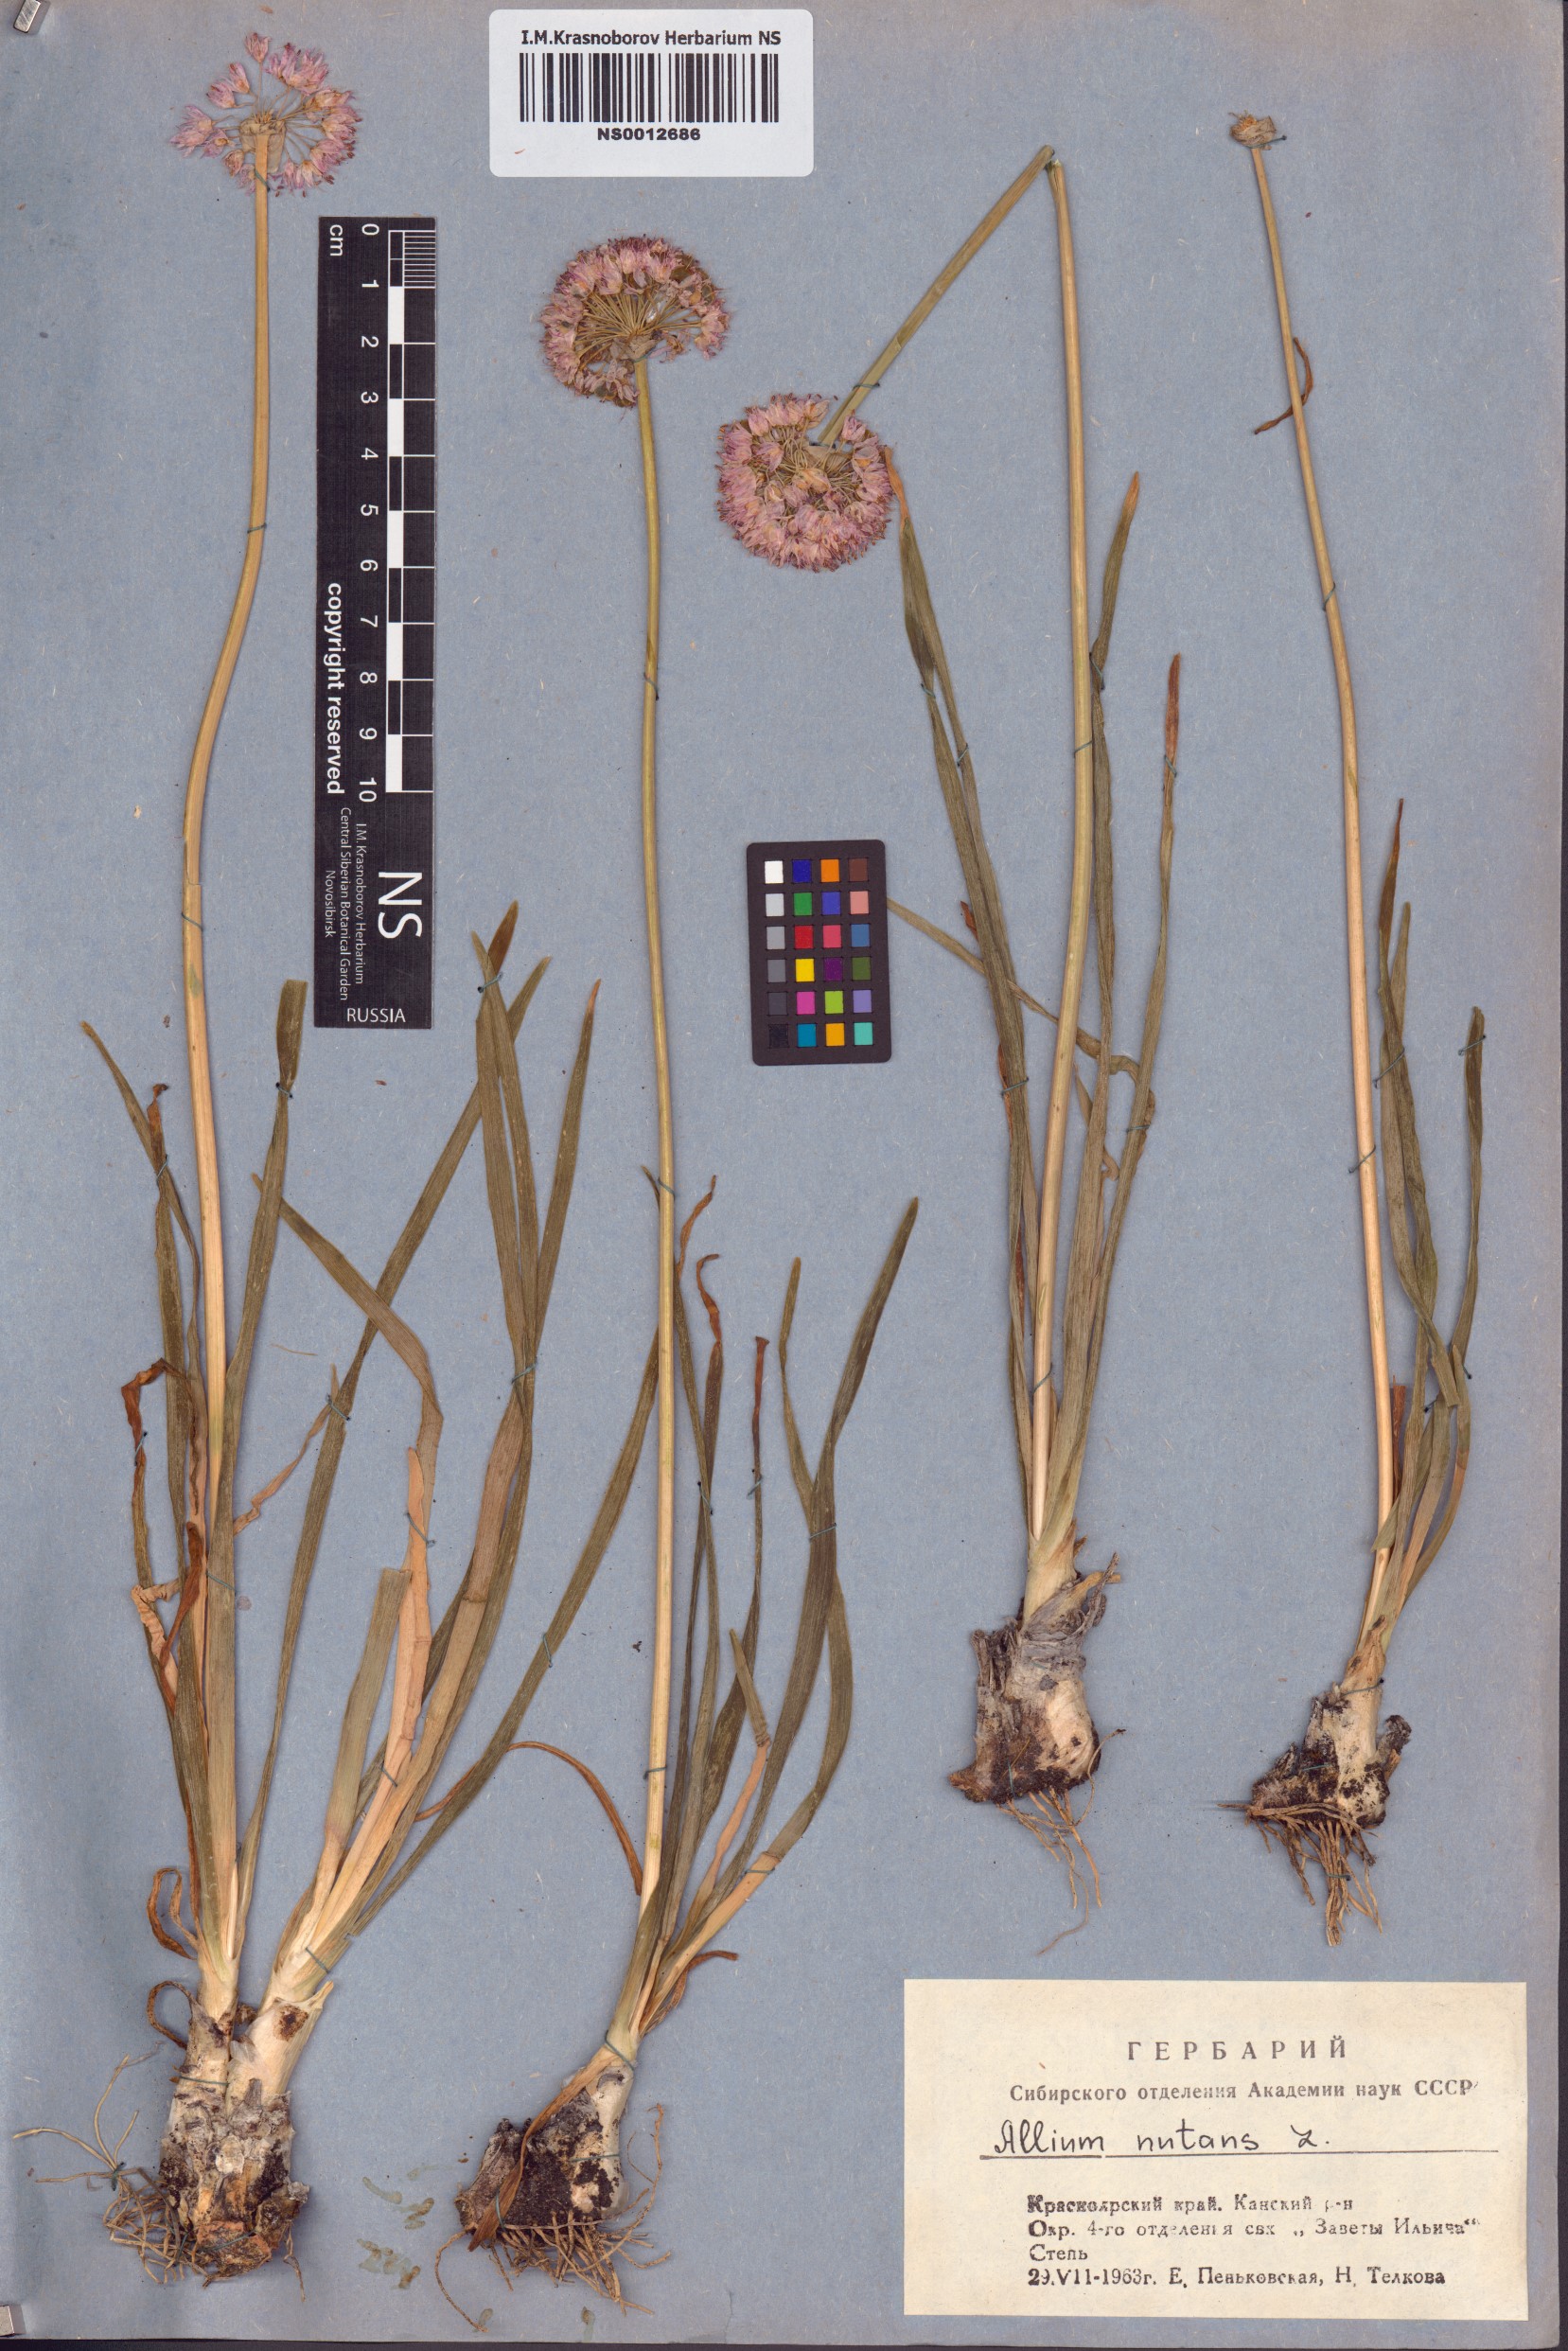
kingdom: Plantae
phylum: Tracheophyta
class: Liliopsida
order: Asparagales
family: Amaryllidaceae
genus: Allium
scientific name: Allium nutans
